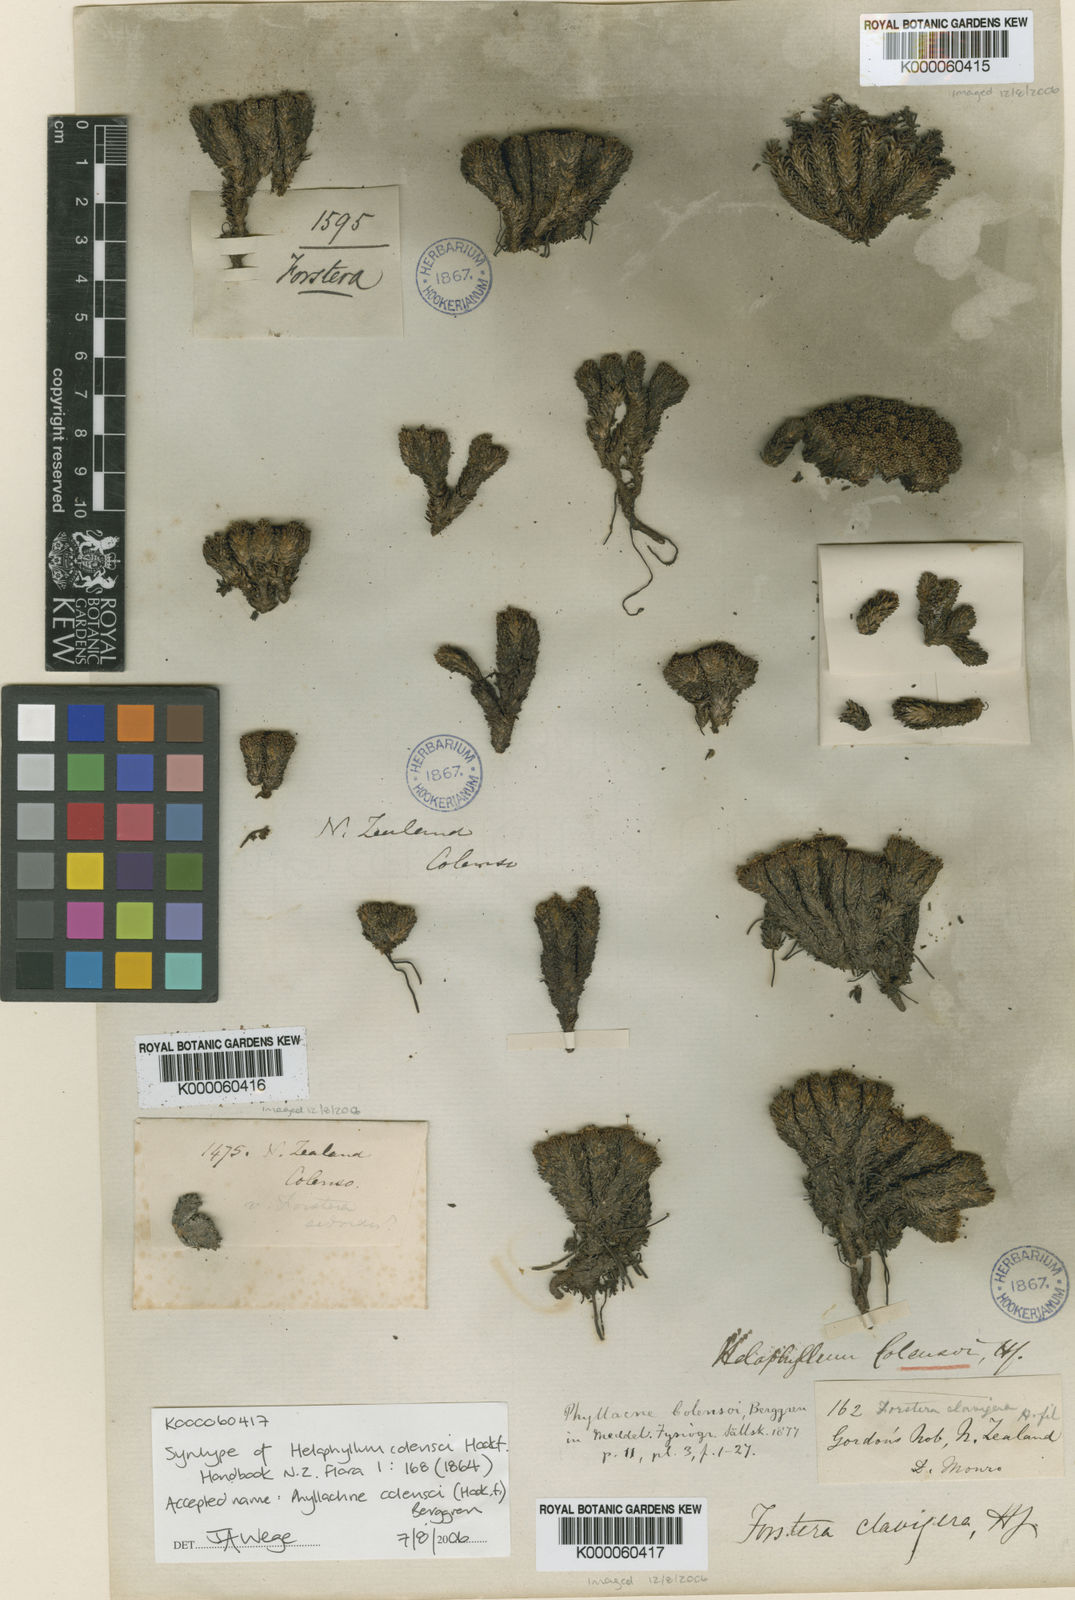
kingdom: Plantae
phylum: Tracheophyta
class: Magnoliopsida
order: Asterales
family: Stylidiaceae
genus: Phyllachne
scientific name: Phyllachne colensoi
